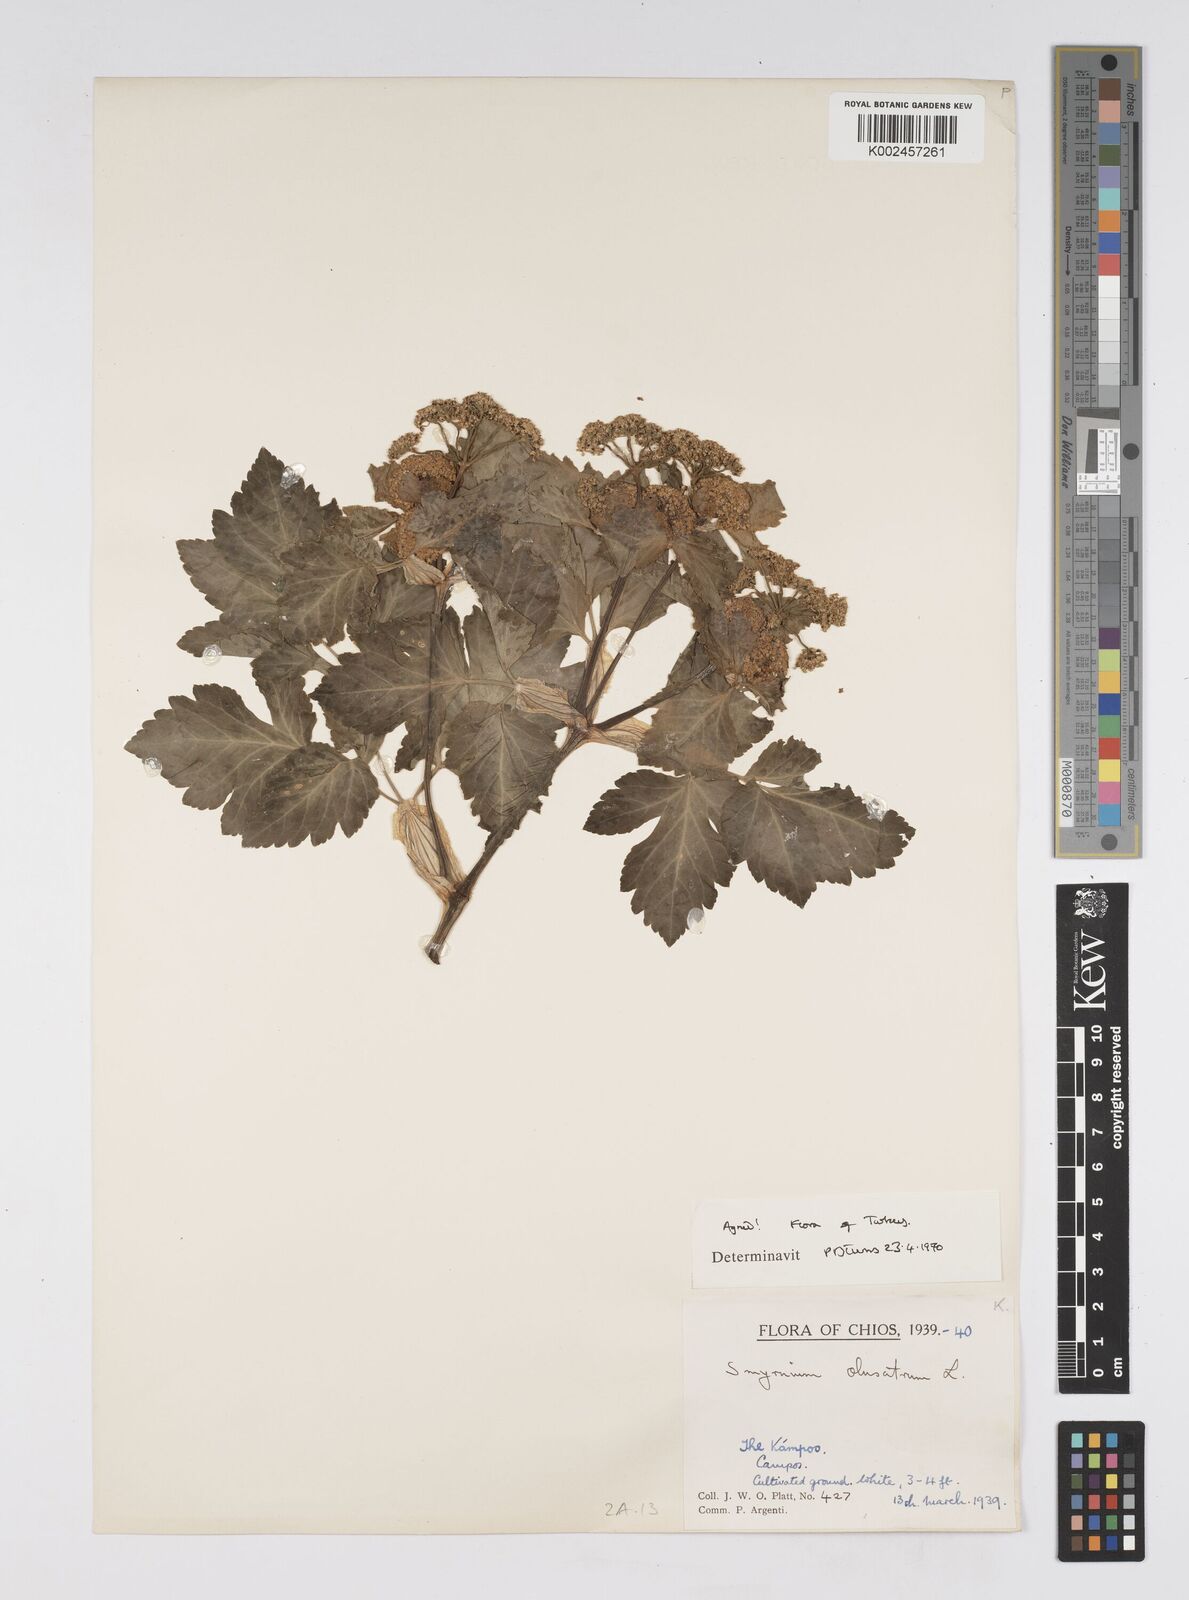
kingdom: Plantae
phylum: Tracheophyta
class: Magnoliopsida
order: Apiales
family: Apiaceae
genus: Smyrnium
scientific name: Smyrnium olusatrum
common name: Alexanders
